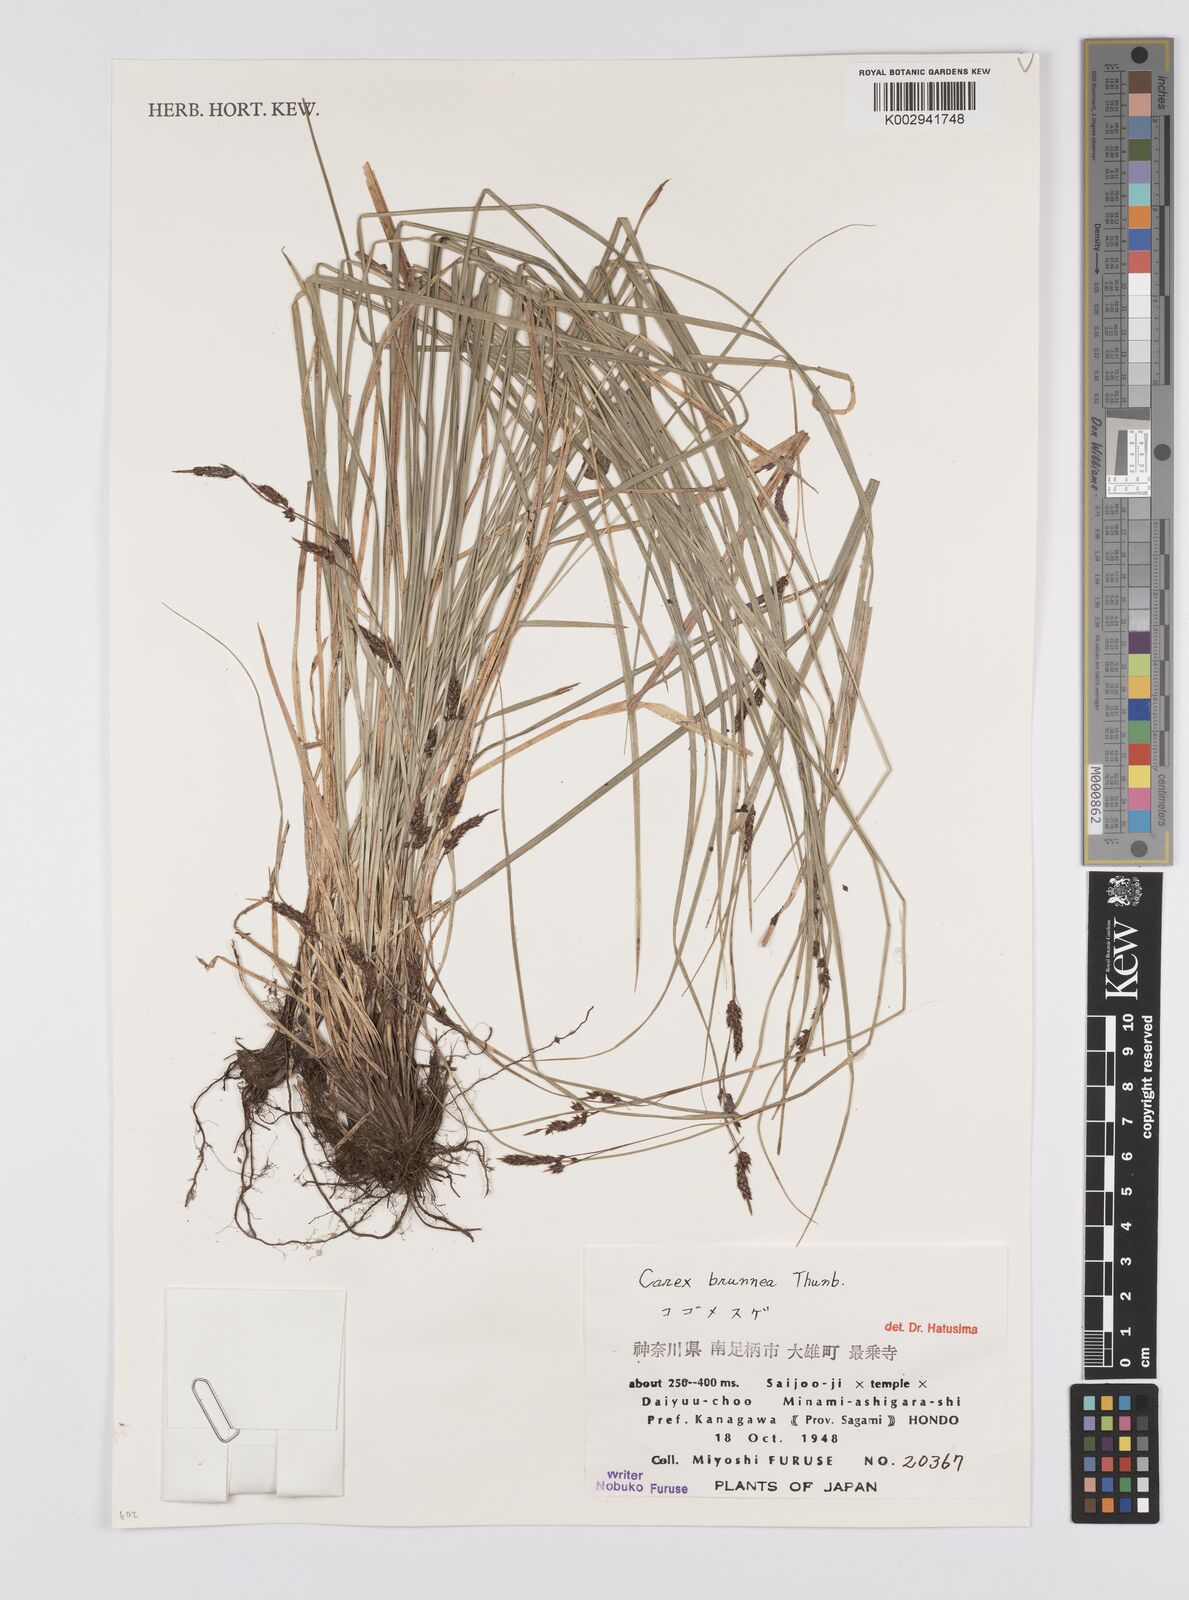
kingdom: Plantae
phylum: Tracheophyta
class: Liliopsida
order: Poales
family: Cyperaceae
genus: Carex
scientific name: Carex brunnea
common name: Greater brown sedge
